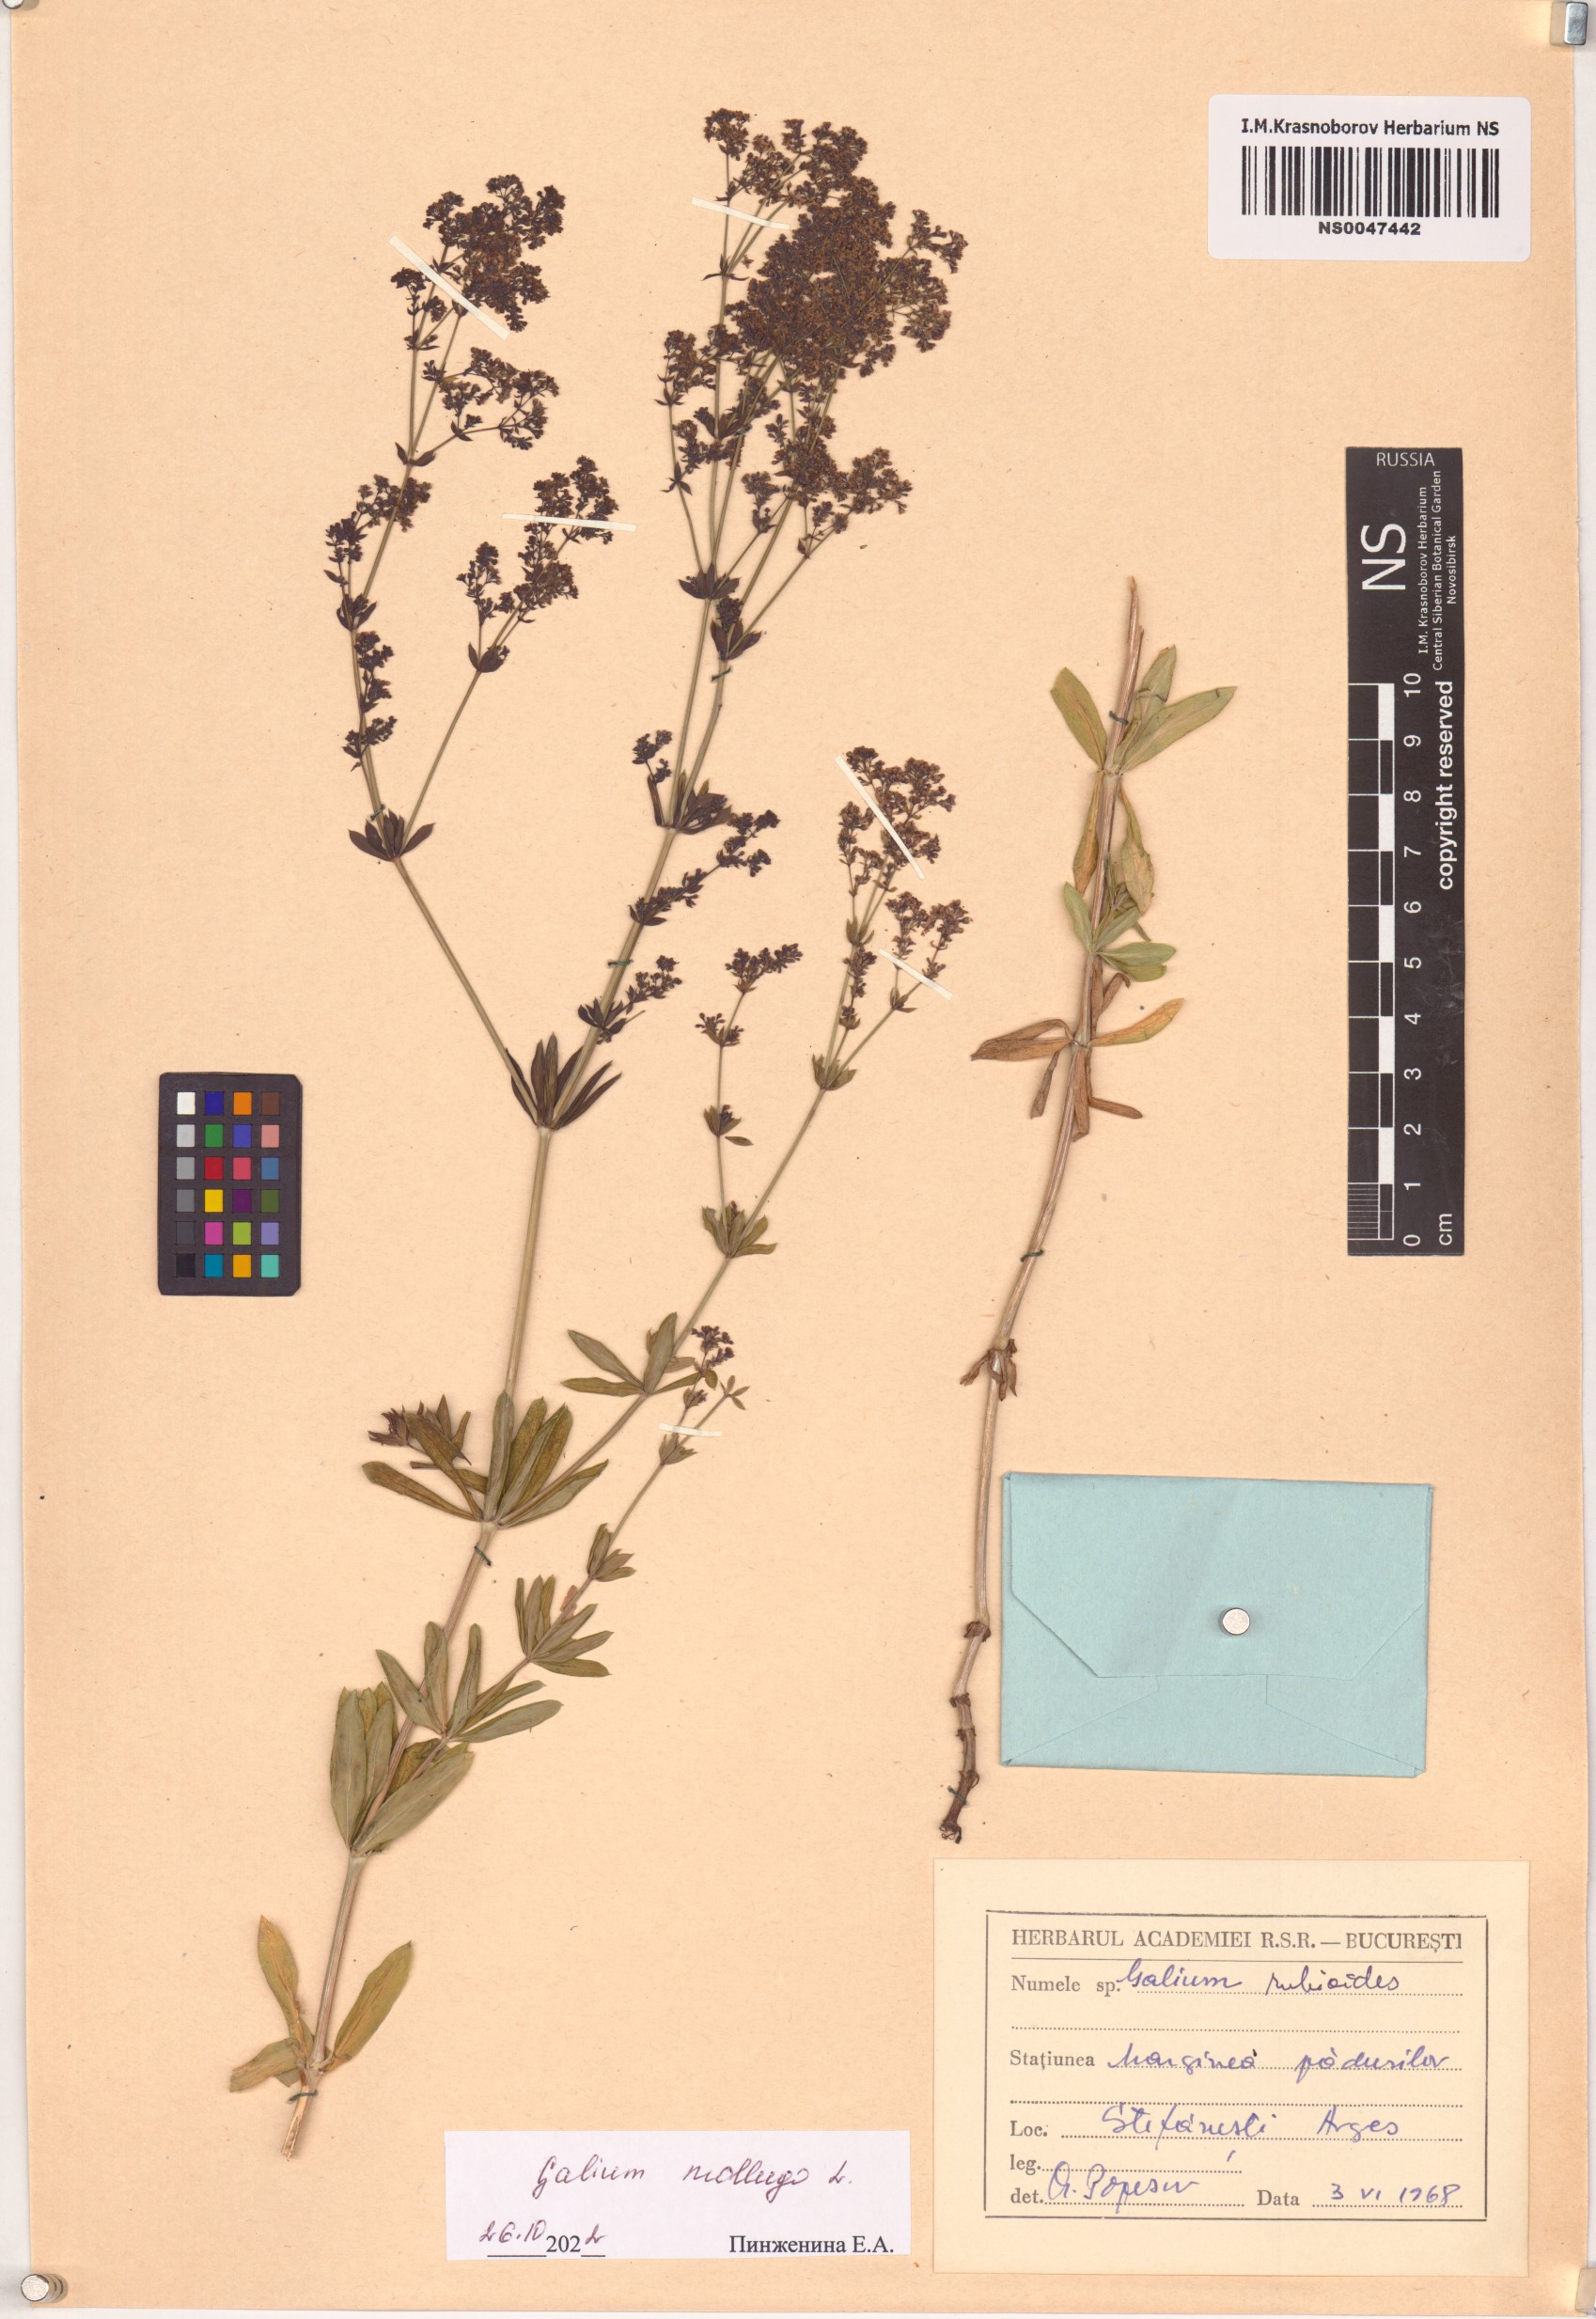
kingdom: Plantae
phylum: Tracheophyta
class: Magnoliopsida
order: Gentianales
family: Rubiaceae
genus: Galium
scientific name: Galium mollugo
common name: Hedge bedstraw
